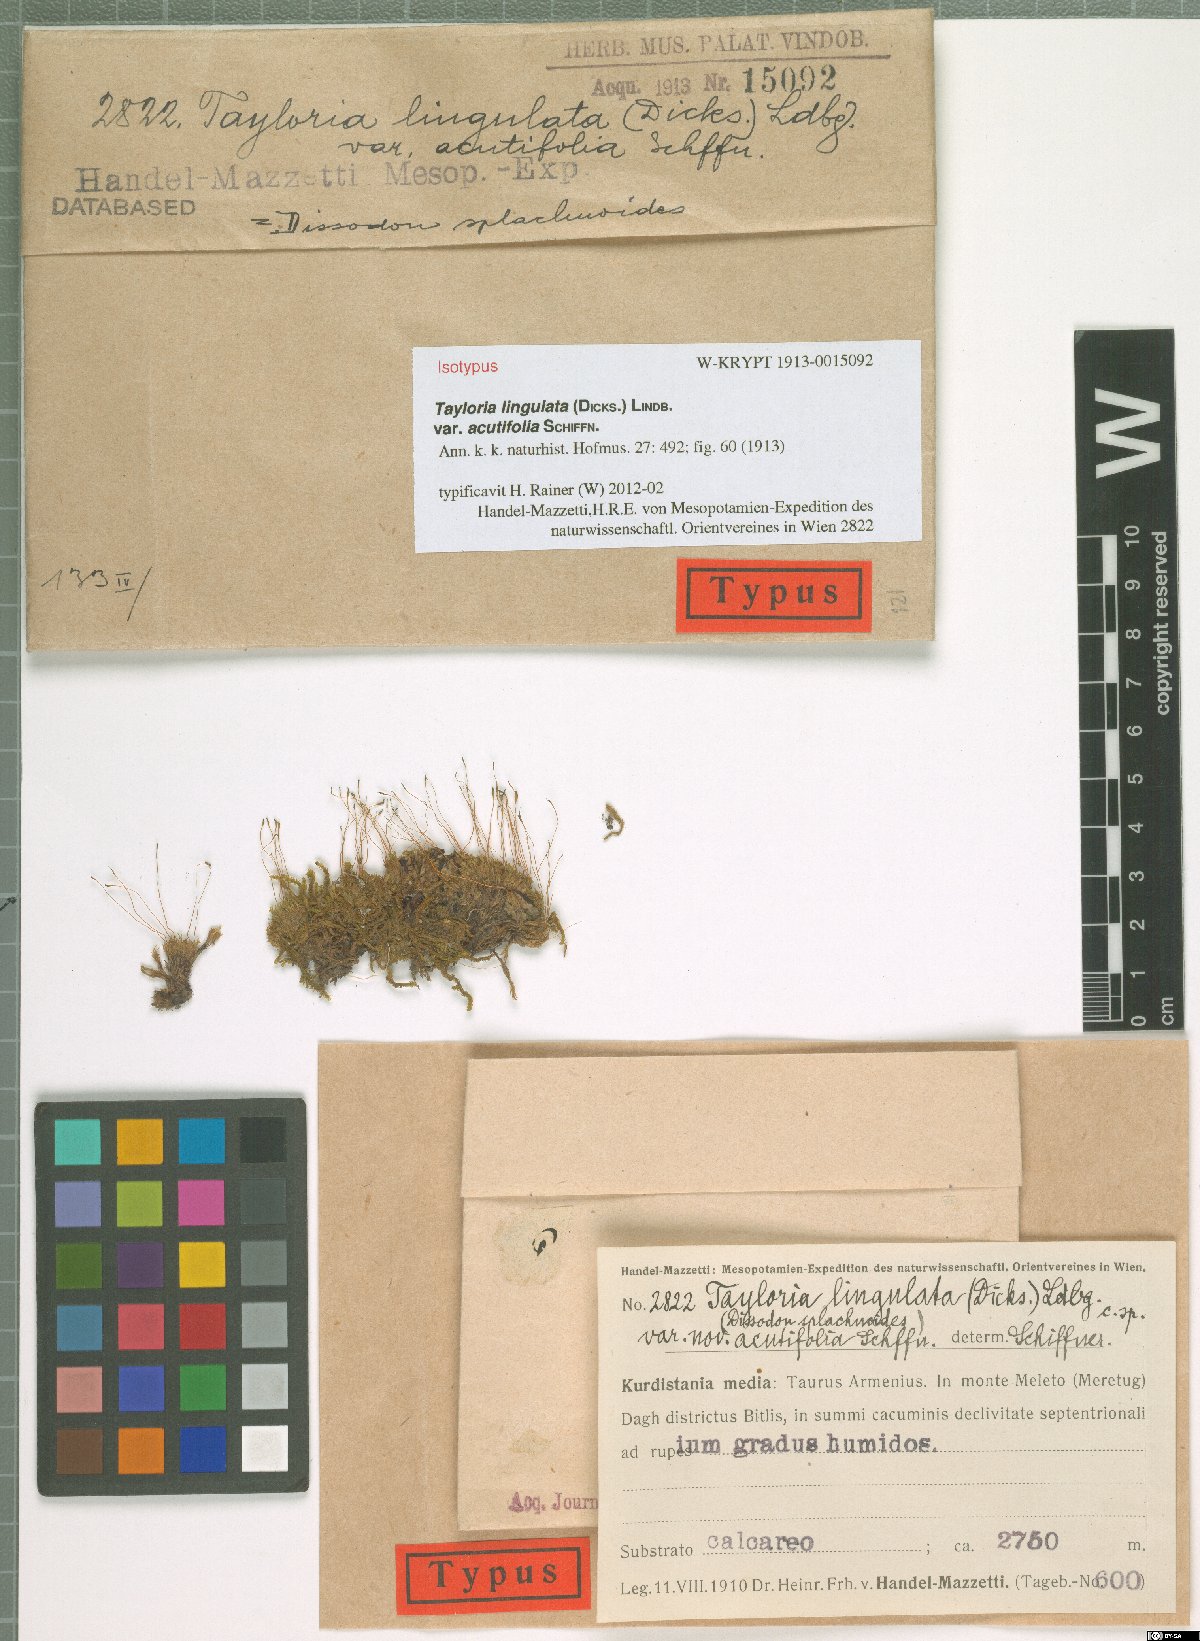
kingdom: Plantae
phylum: Bryophyta
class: Bryopsida
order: Splachnales
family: Splachnaceae
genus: Tayloria
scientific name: Tayloria lingulata
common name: Tongue-leaved trumpet moss
